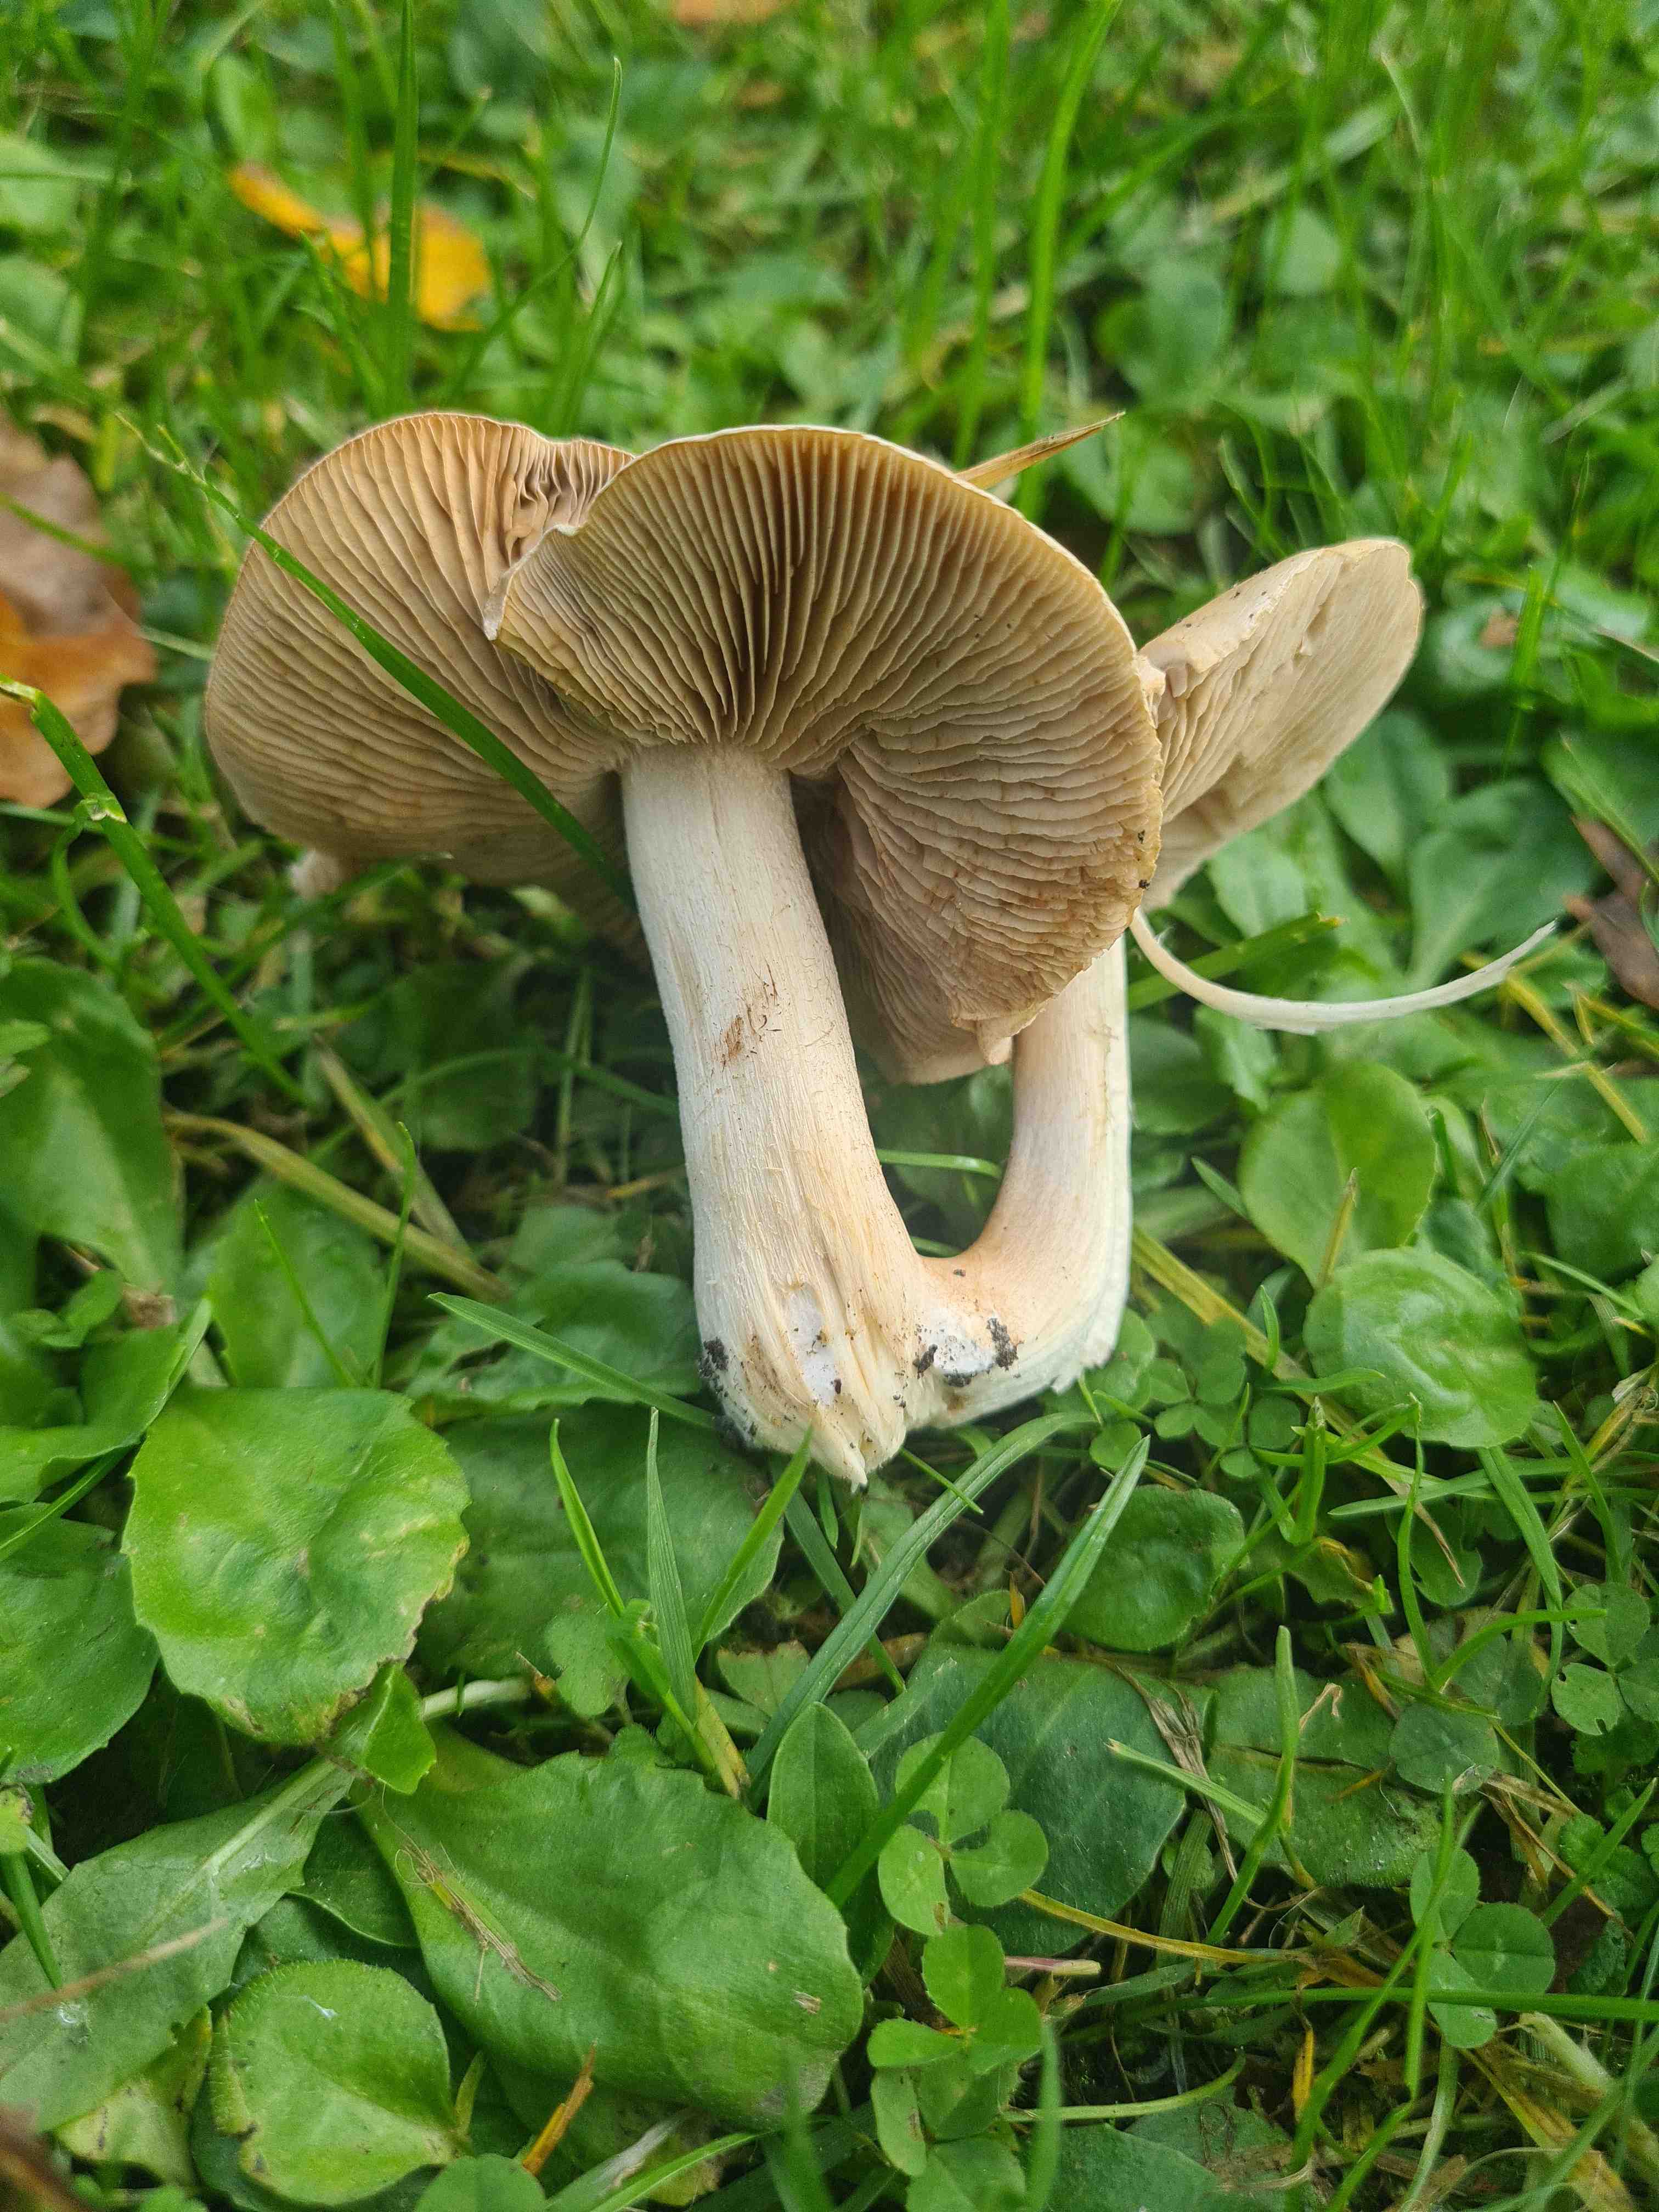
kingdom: Fungi
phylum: Basidiomycota
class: Agaricomycetes
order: Agaricales
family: Hymenogastraceae
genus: Hebeloma
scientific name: Hebeloma
